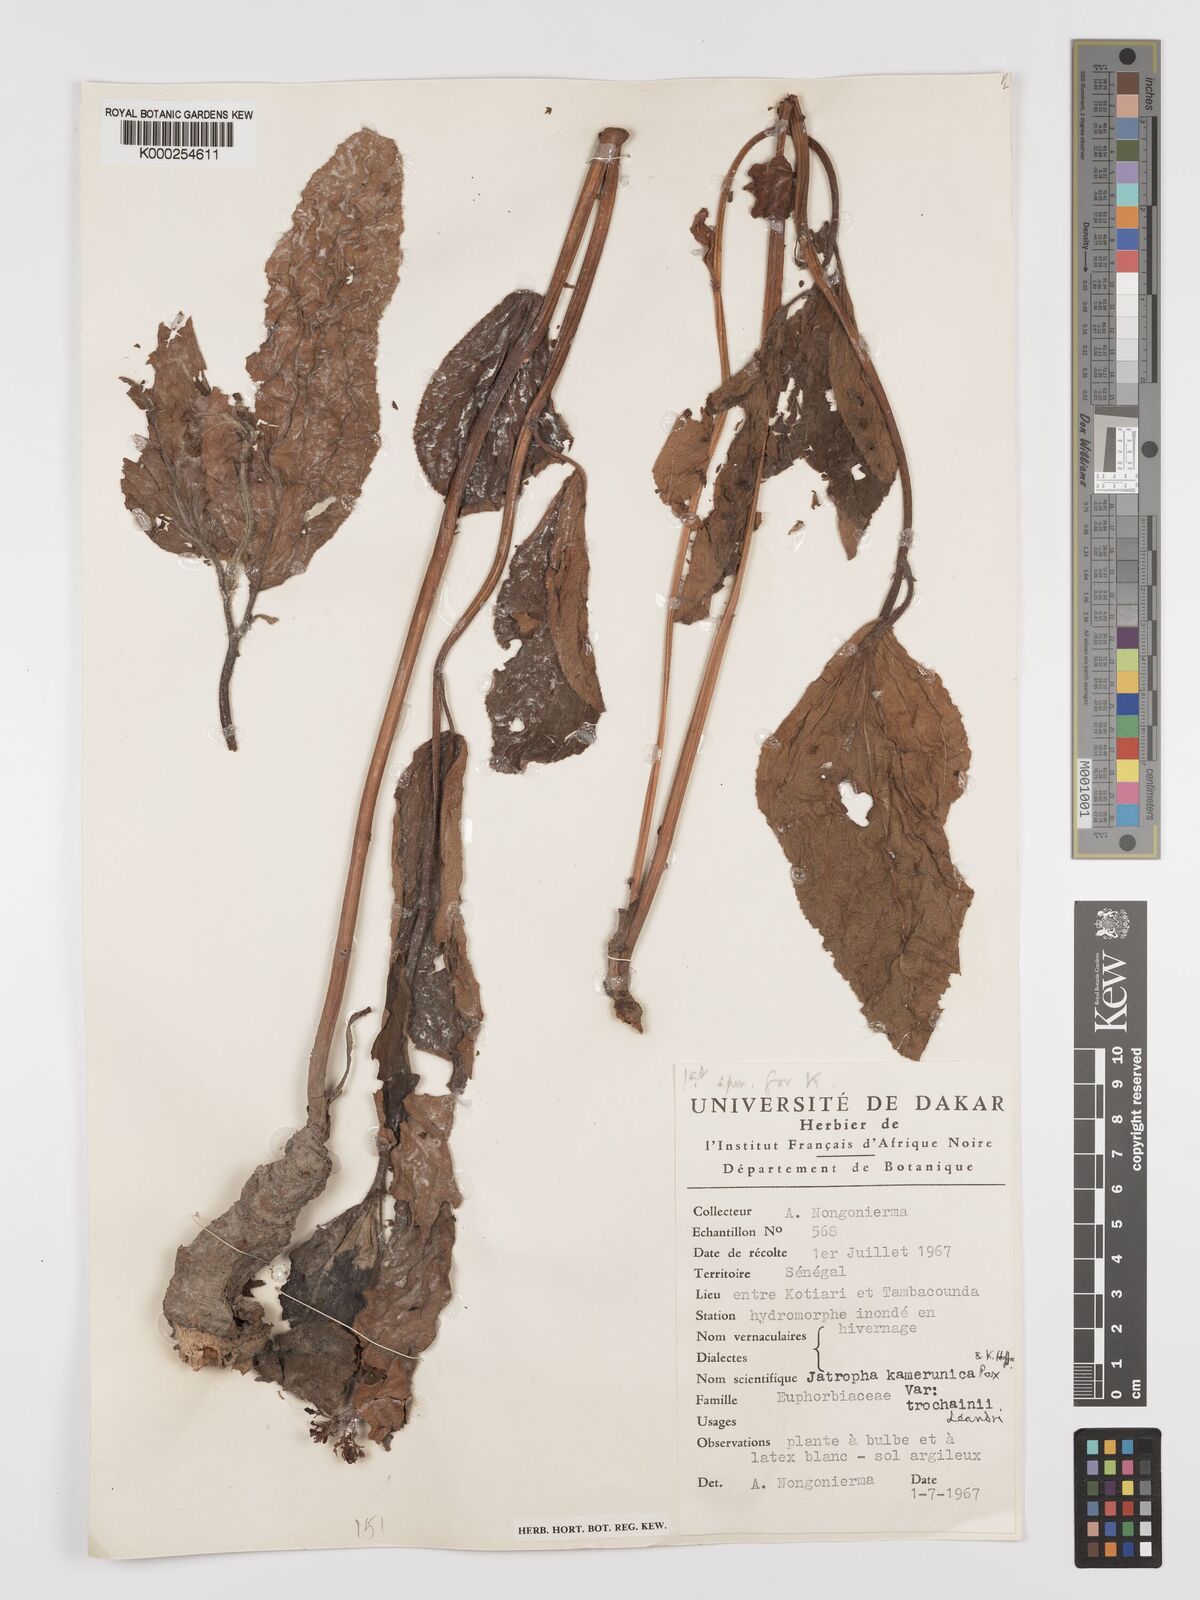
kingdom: Plantae
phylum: Tracheophyta
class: Magnoliopsida
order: Malpighiales
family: Euphorbiaceae
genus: Jatropha
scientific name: Jatropha kamerunica
